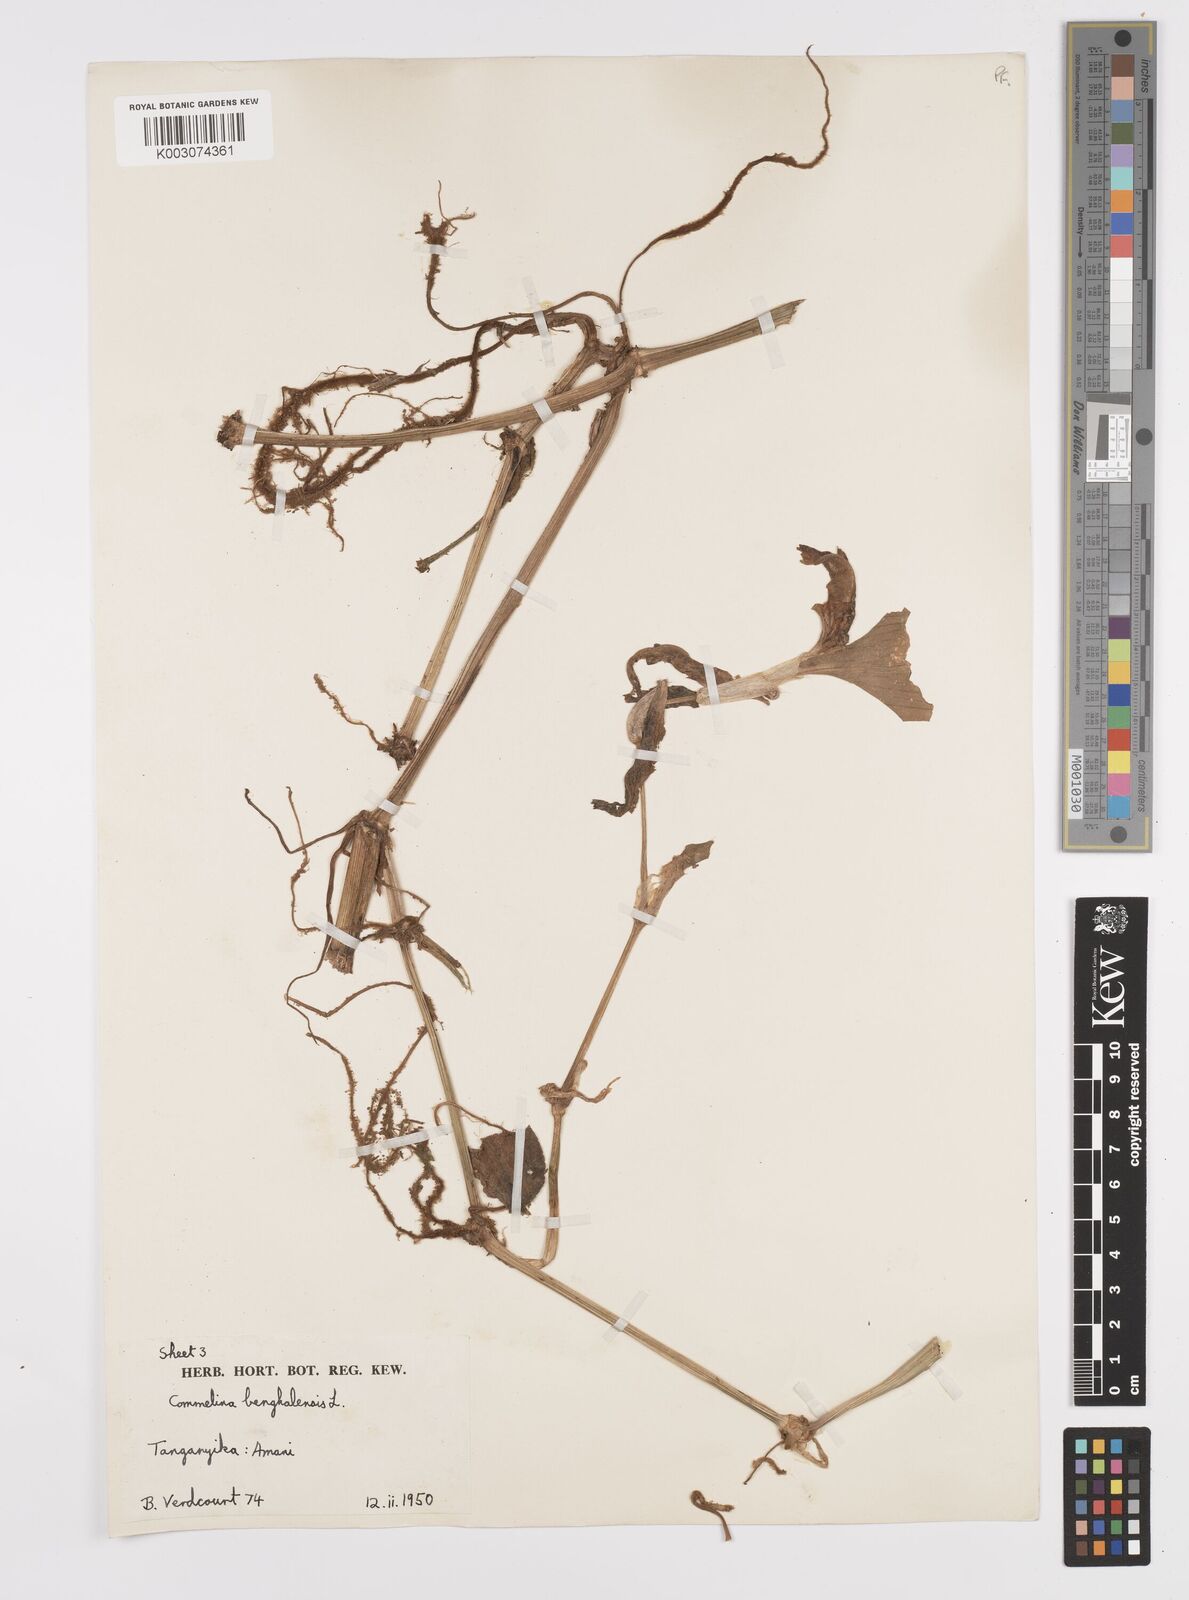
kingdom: Plantae
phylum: Tracheophyta
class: Liliopsida
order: Commelinales
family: Commelinaceae
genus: Commelina
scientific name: Commelina benghalensis
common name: Jio
